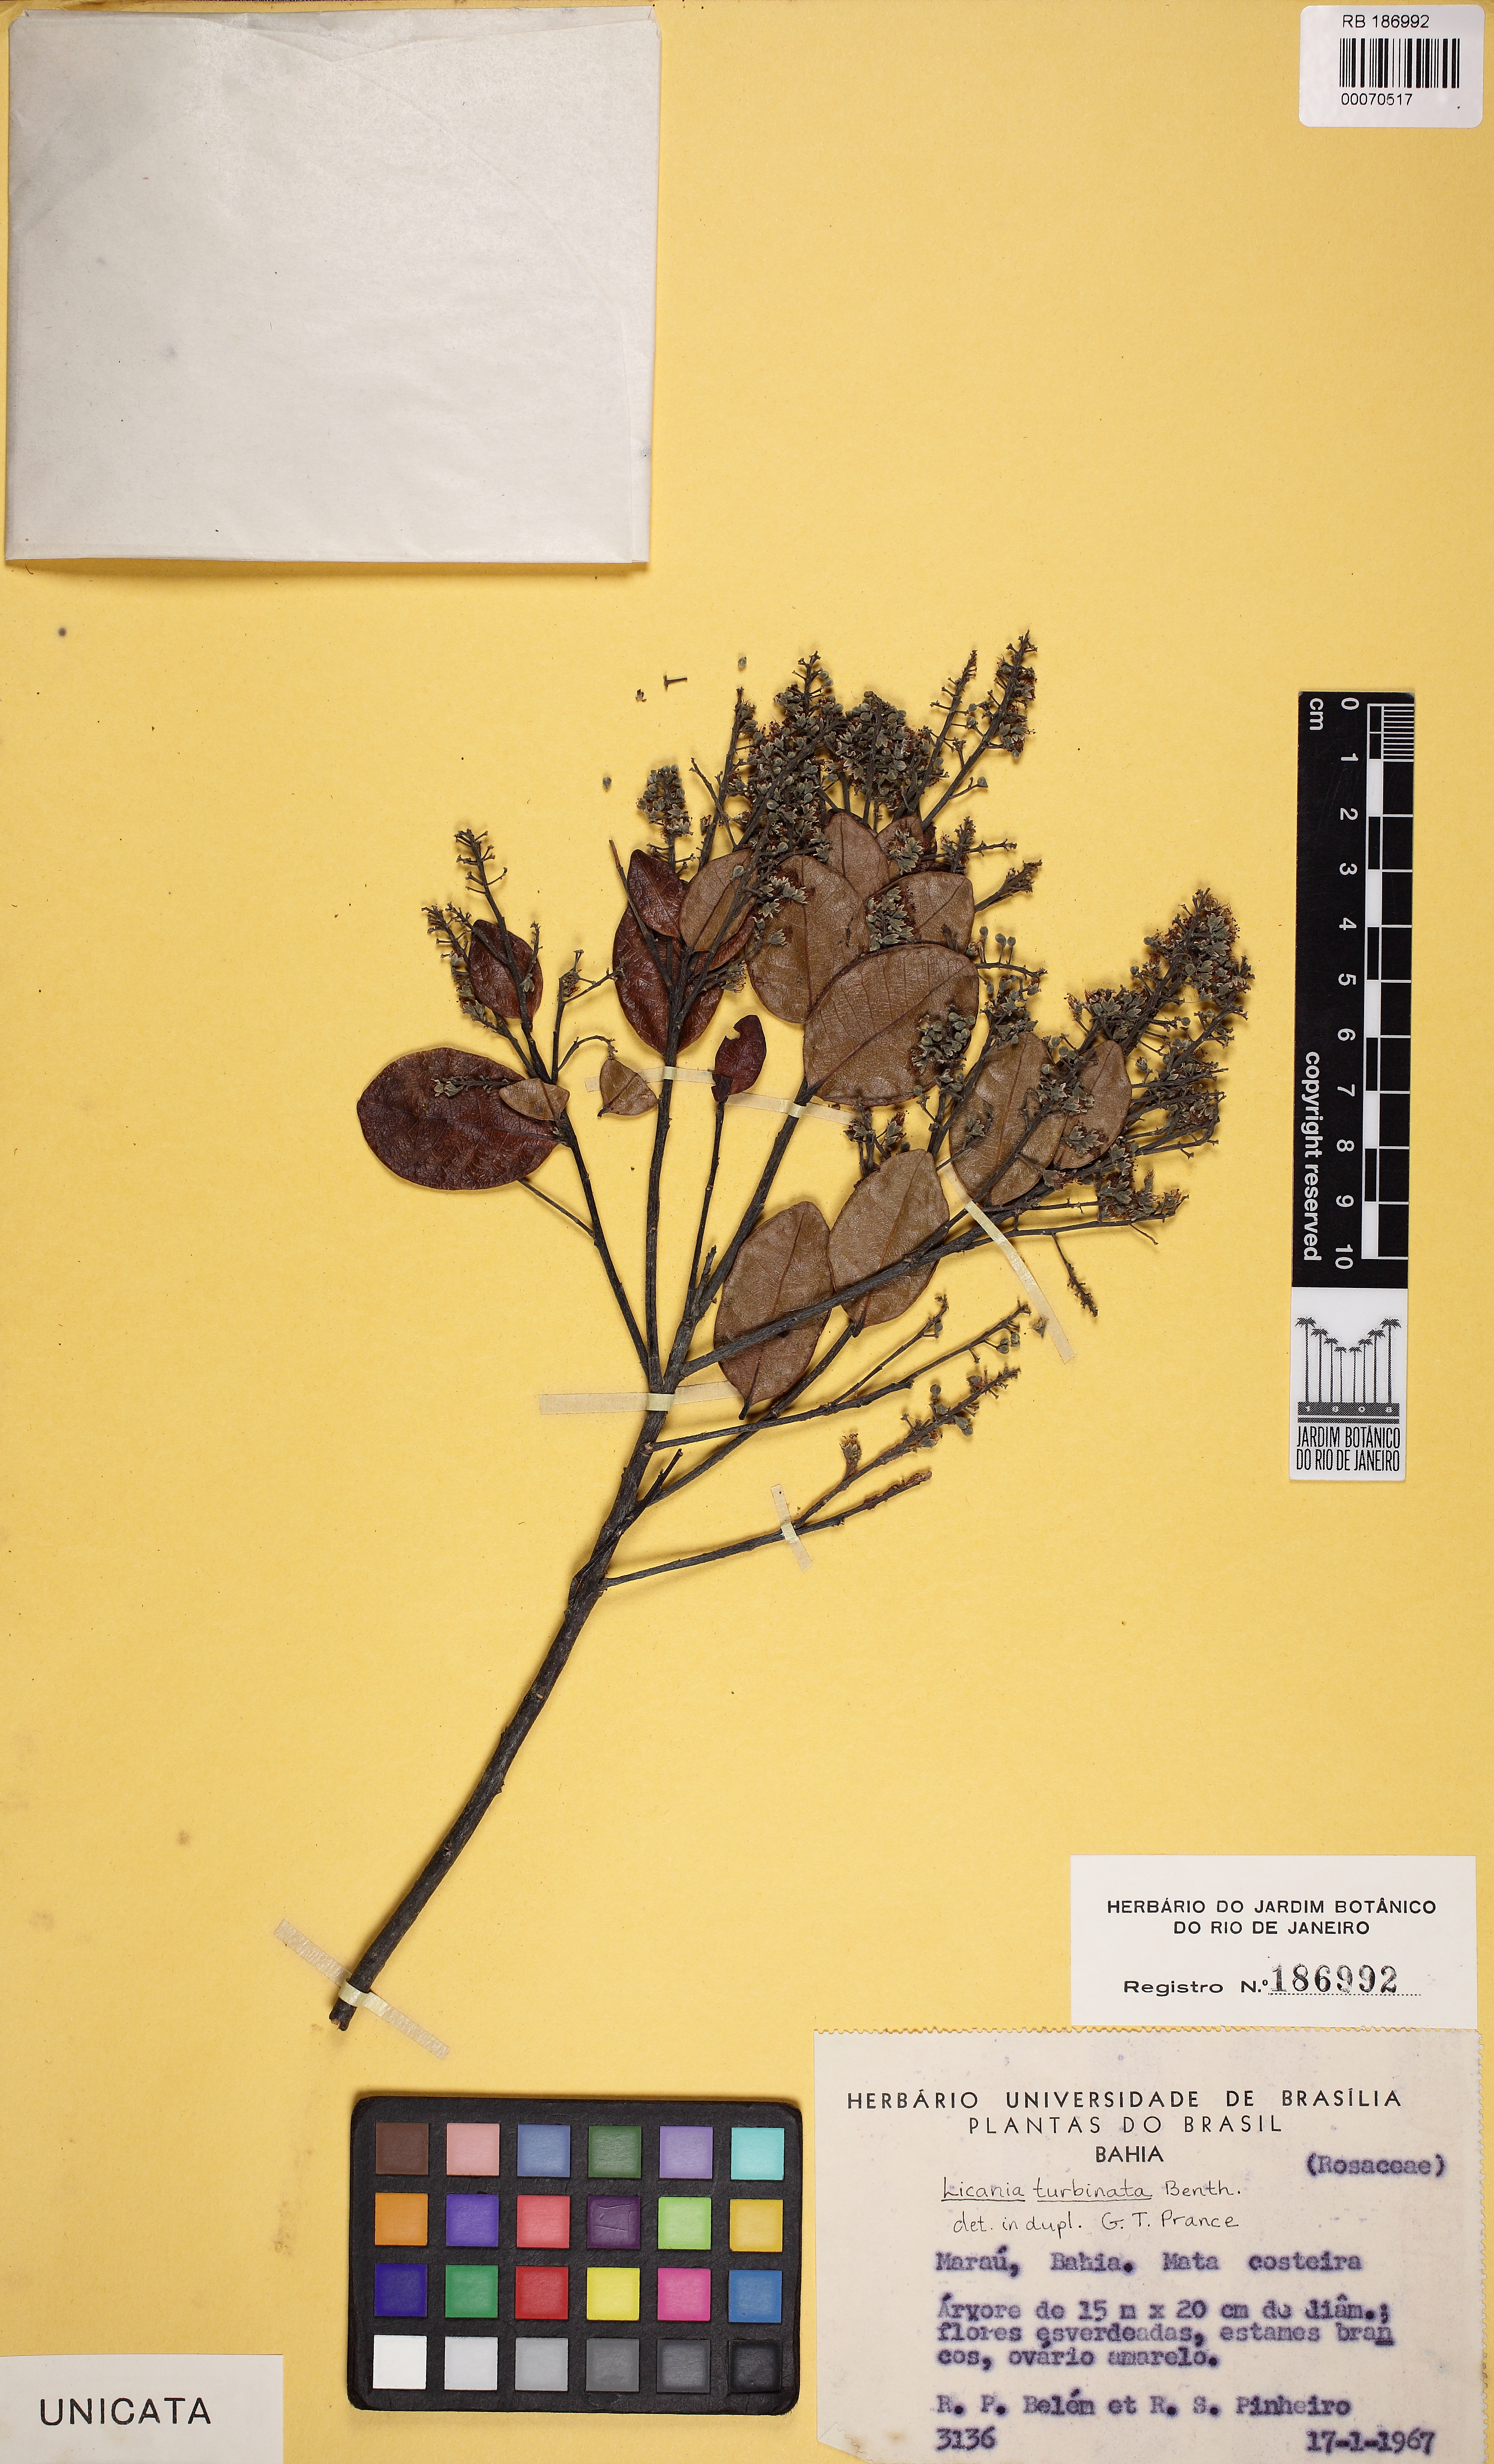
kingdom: Plantae
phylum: Tracheophyta
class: Magnoliopsida
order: Malpighiales
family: Chrysobalanaceae
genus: Leptobalanus
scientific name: Leptobalanus turbinatus
